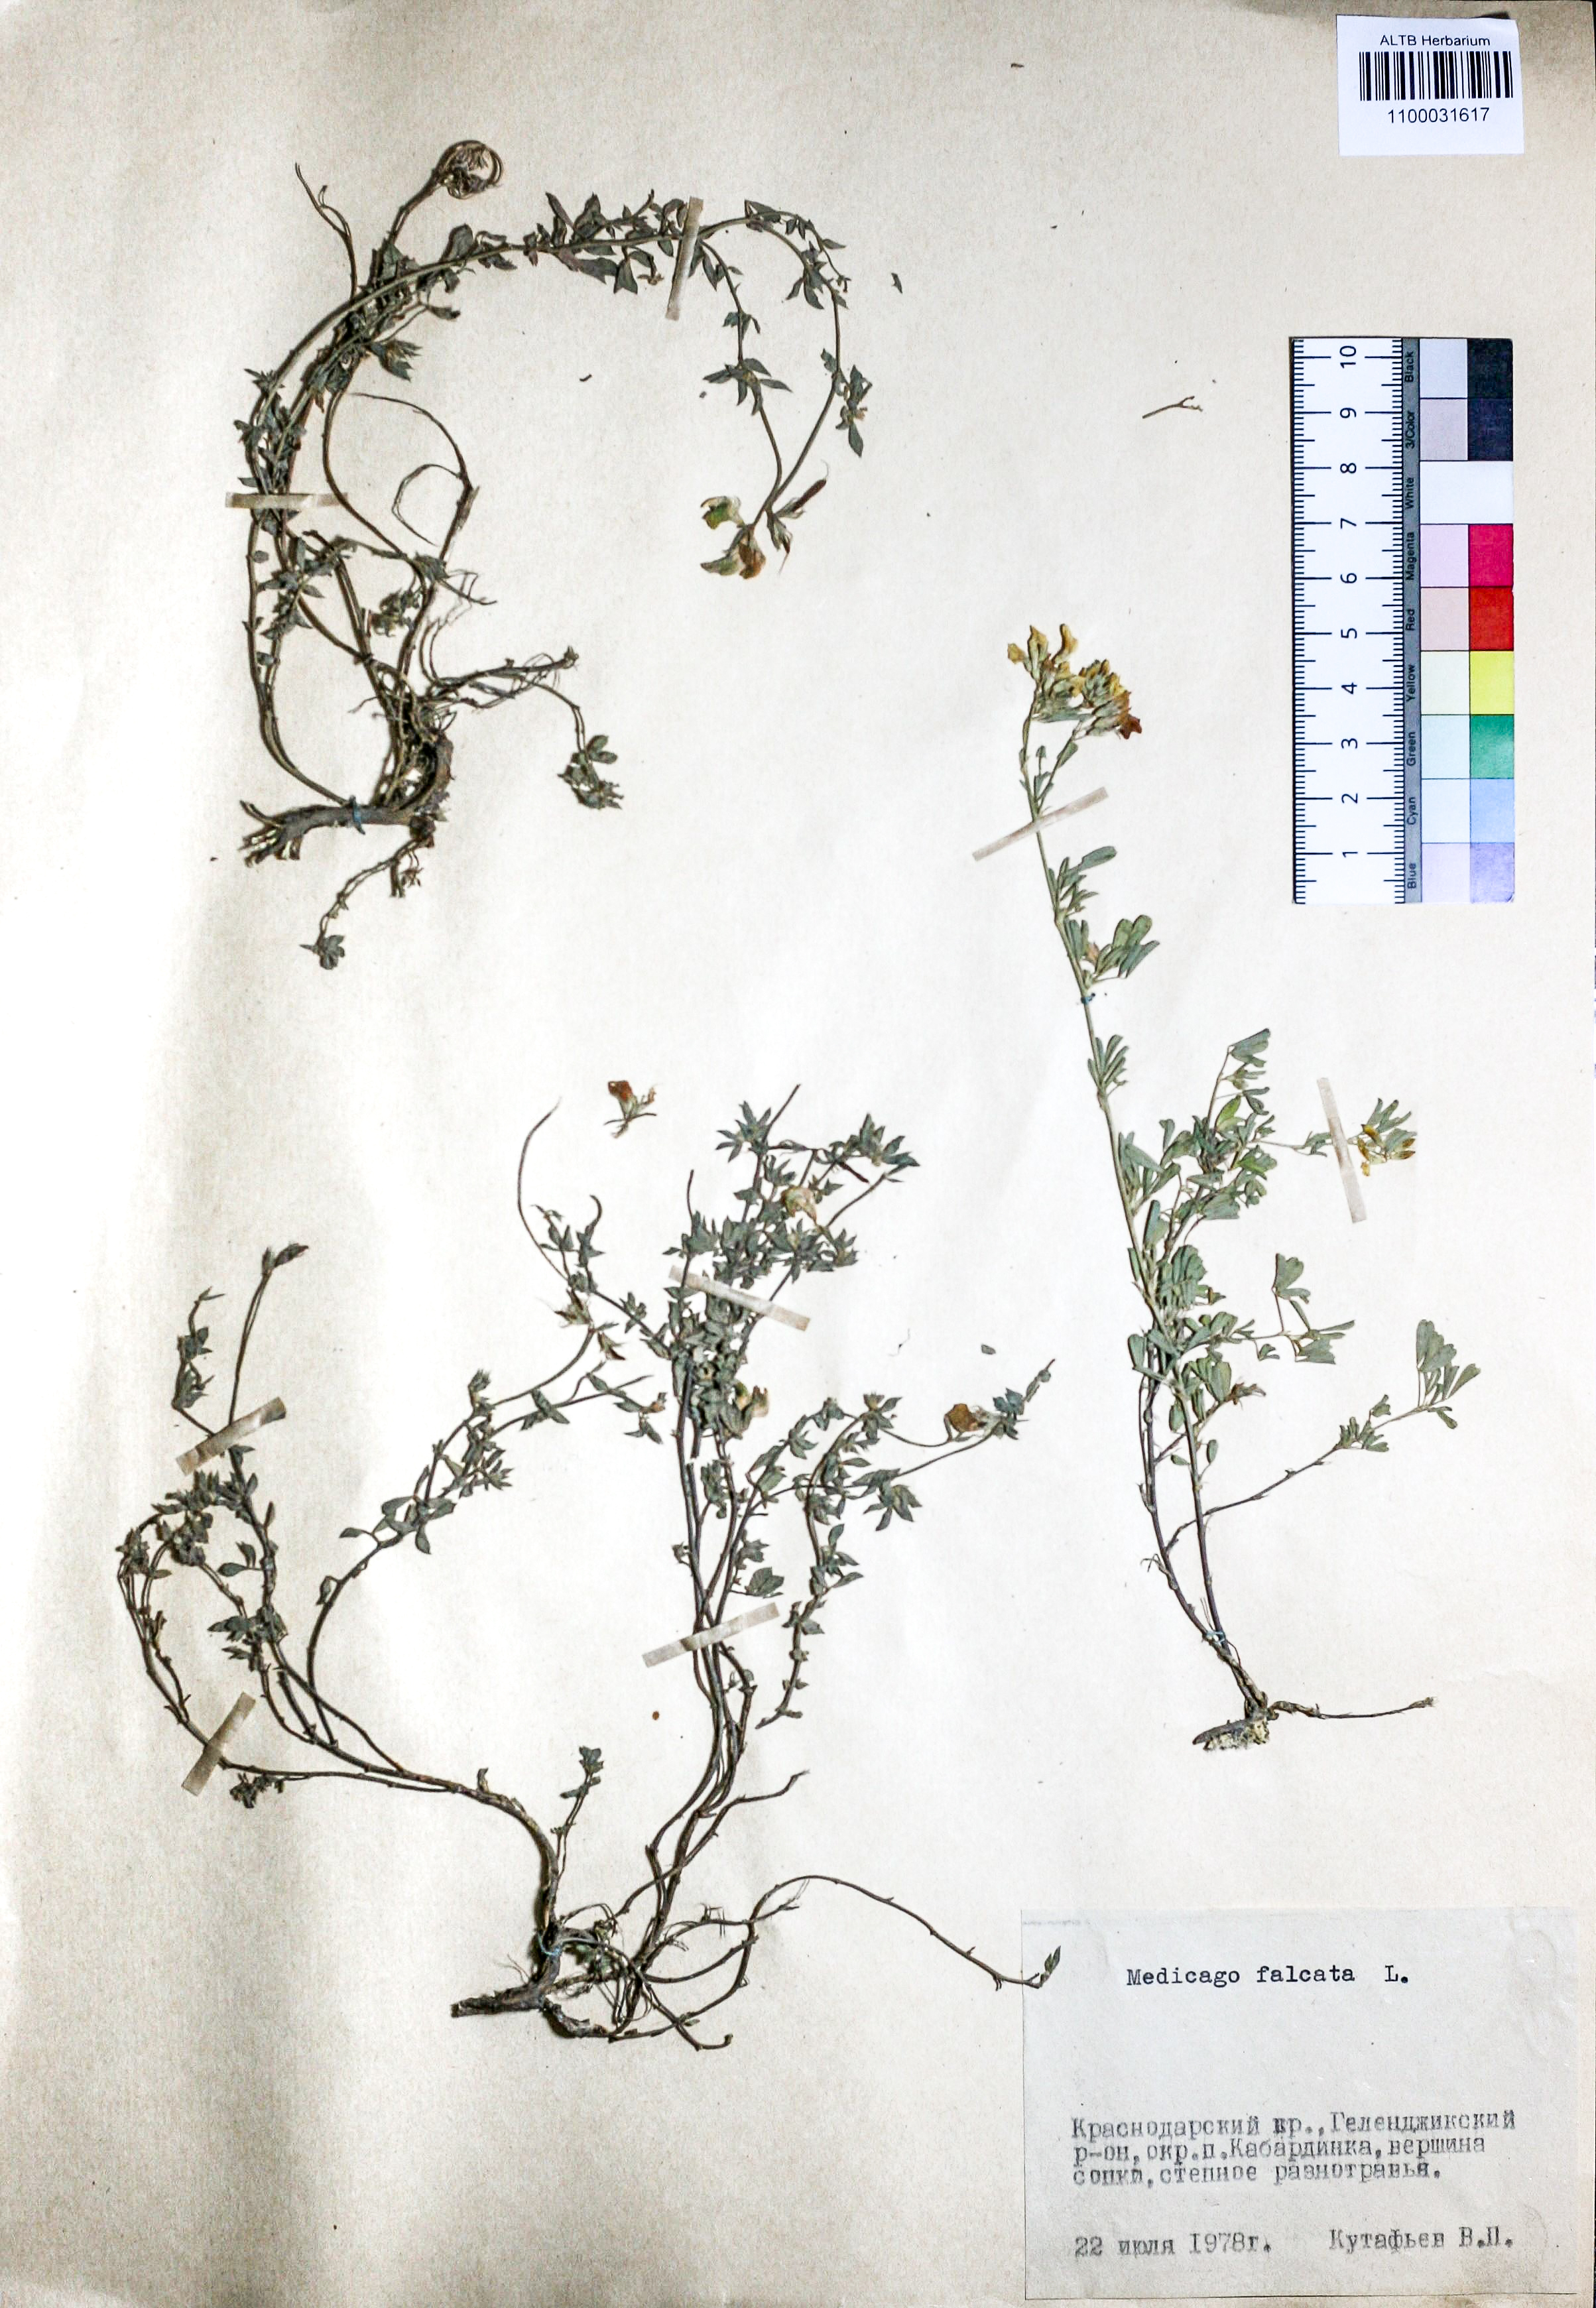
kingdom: Plantae
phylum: Tracheophyta
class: Magnoliopsida
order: Fabales
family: Fabaceae
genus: Medicago
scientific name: Medicago falcata
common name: Sickle medick
